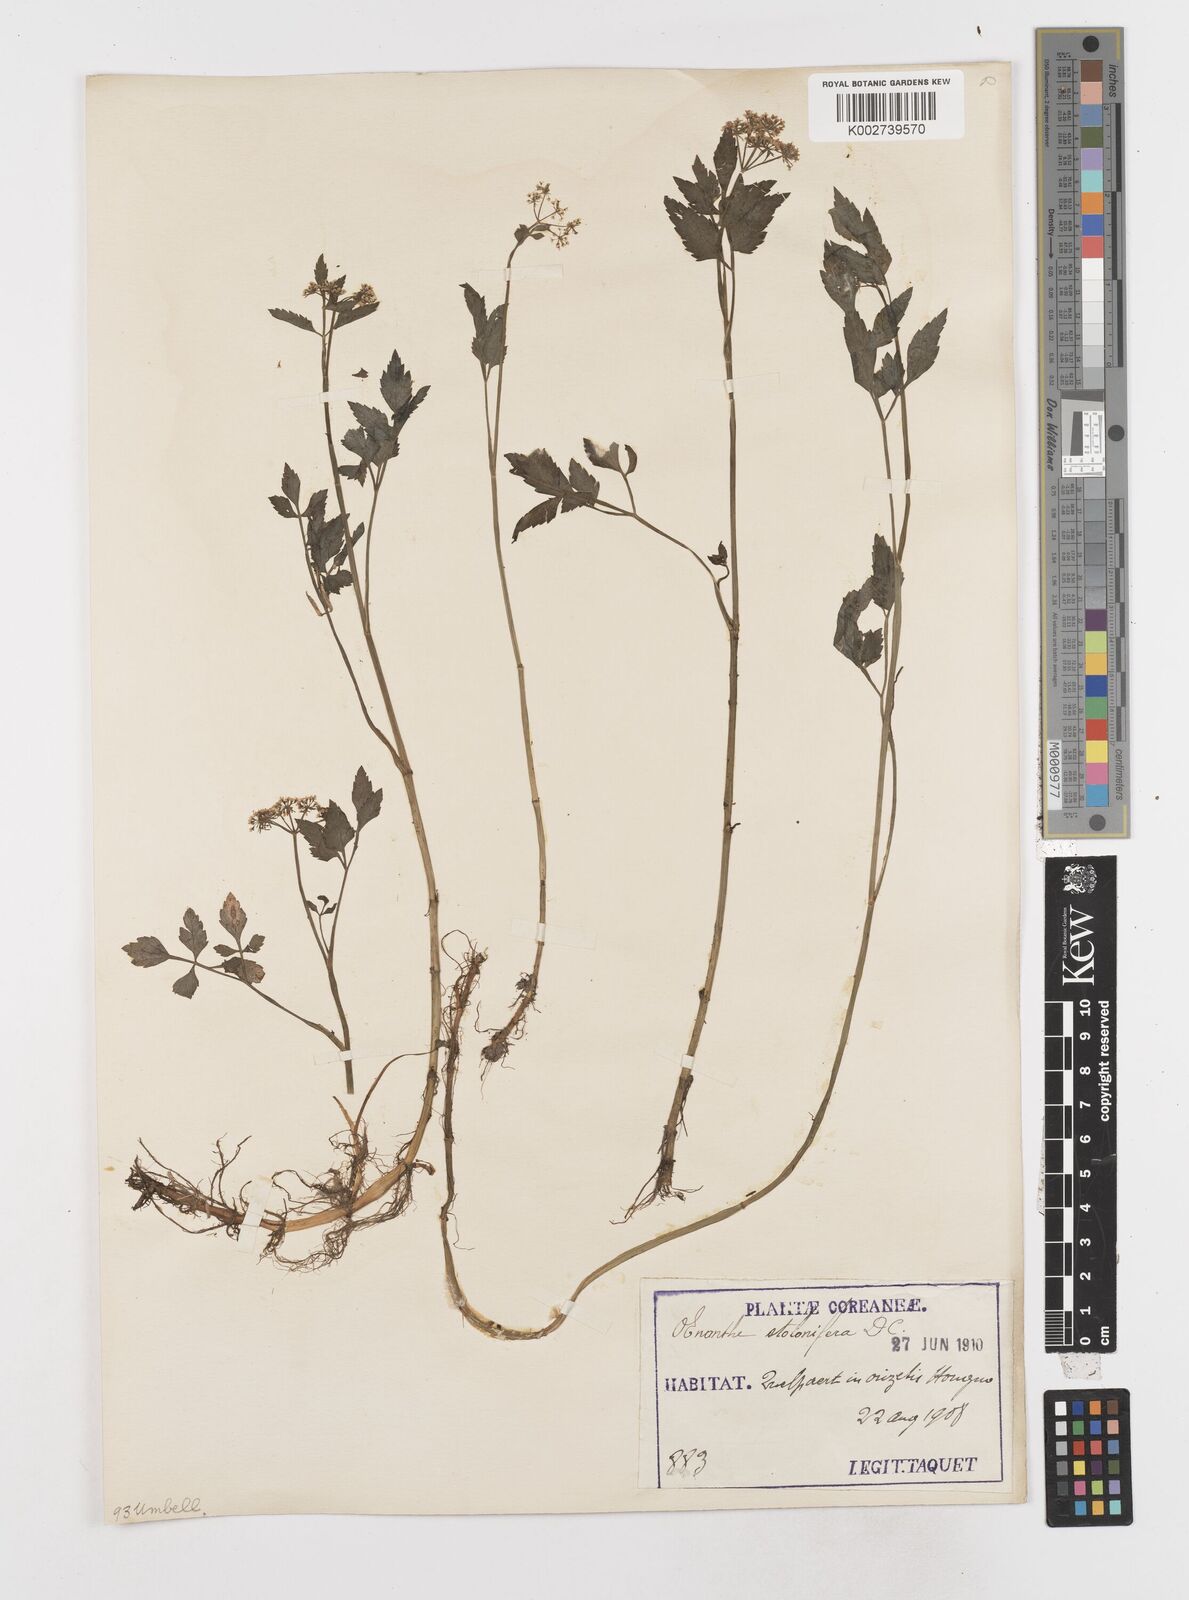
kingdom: Plantae
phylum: Tracheophyta
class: Magnoliopsida
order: Apiales
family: Apiaceae
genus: Oenanthe
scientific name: Oenanthe javanica
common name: Java water-dropwort
